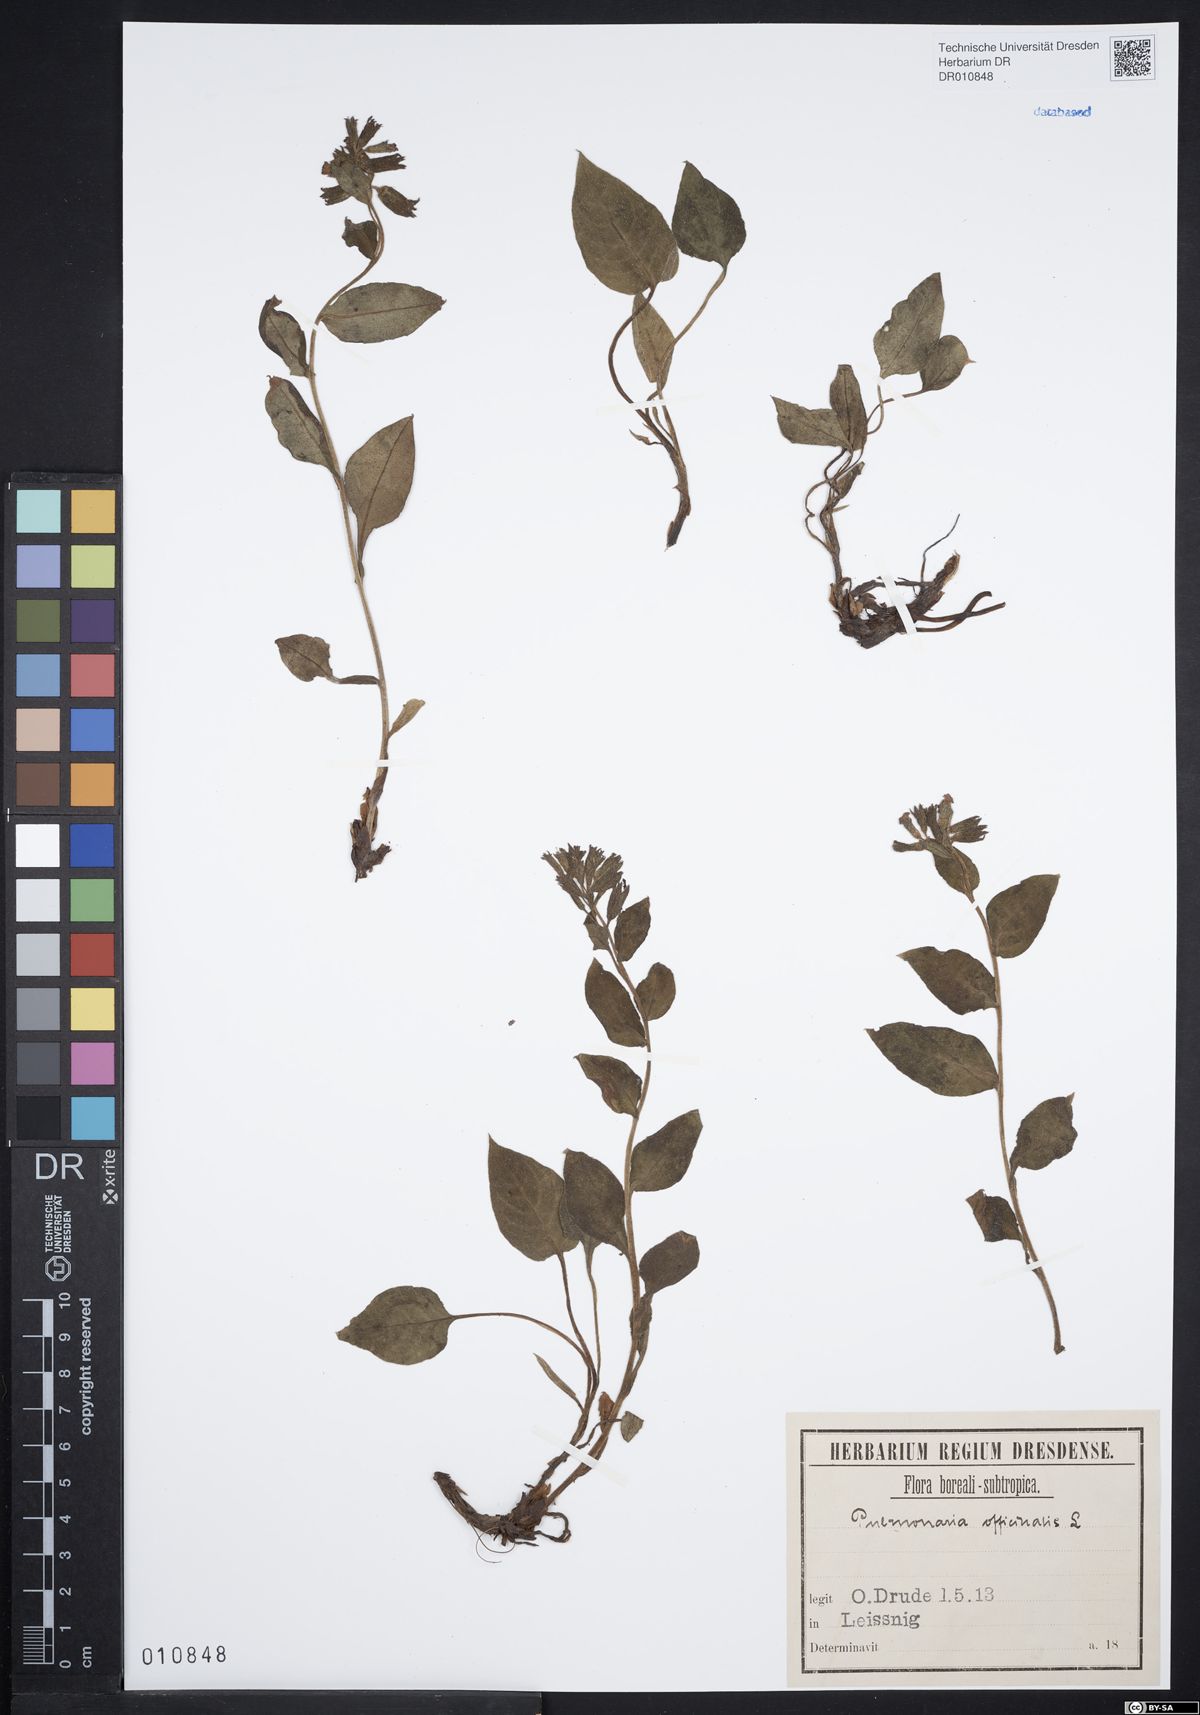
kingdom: Plantae
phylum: Tracheophyta
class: Magnoliopsida
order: Boraginales
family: Boraginaceae
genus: Pulmonaria
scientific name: Pulmonaria obscura
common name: Suffolk lungwort
